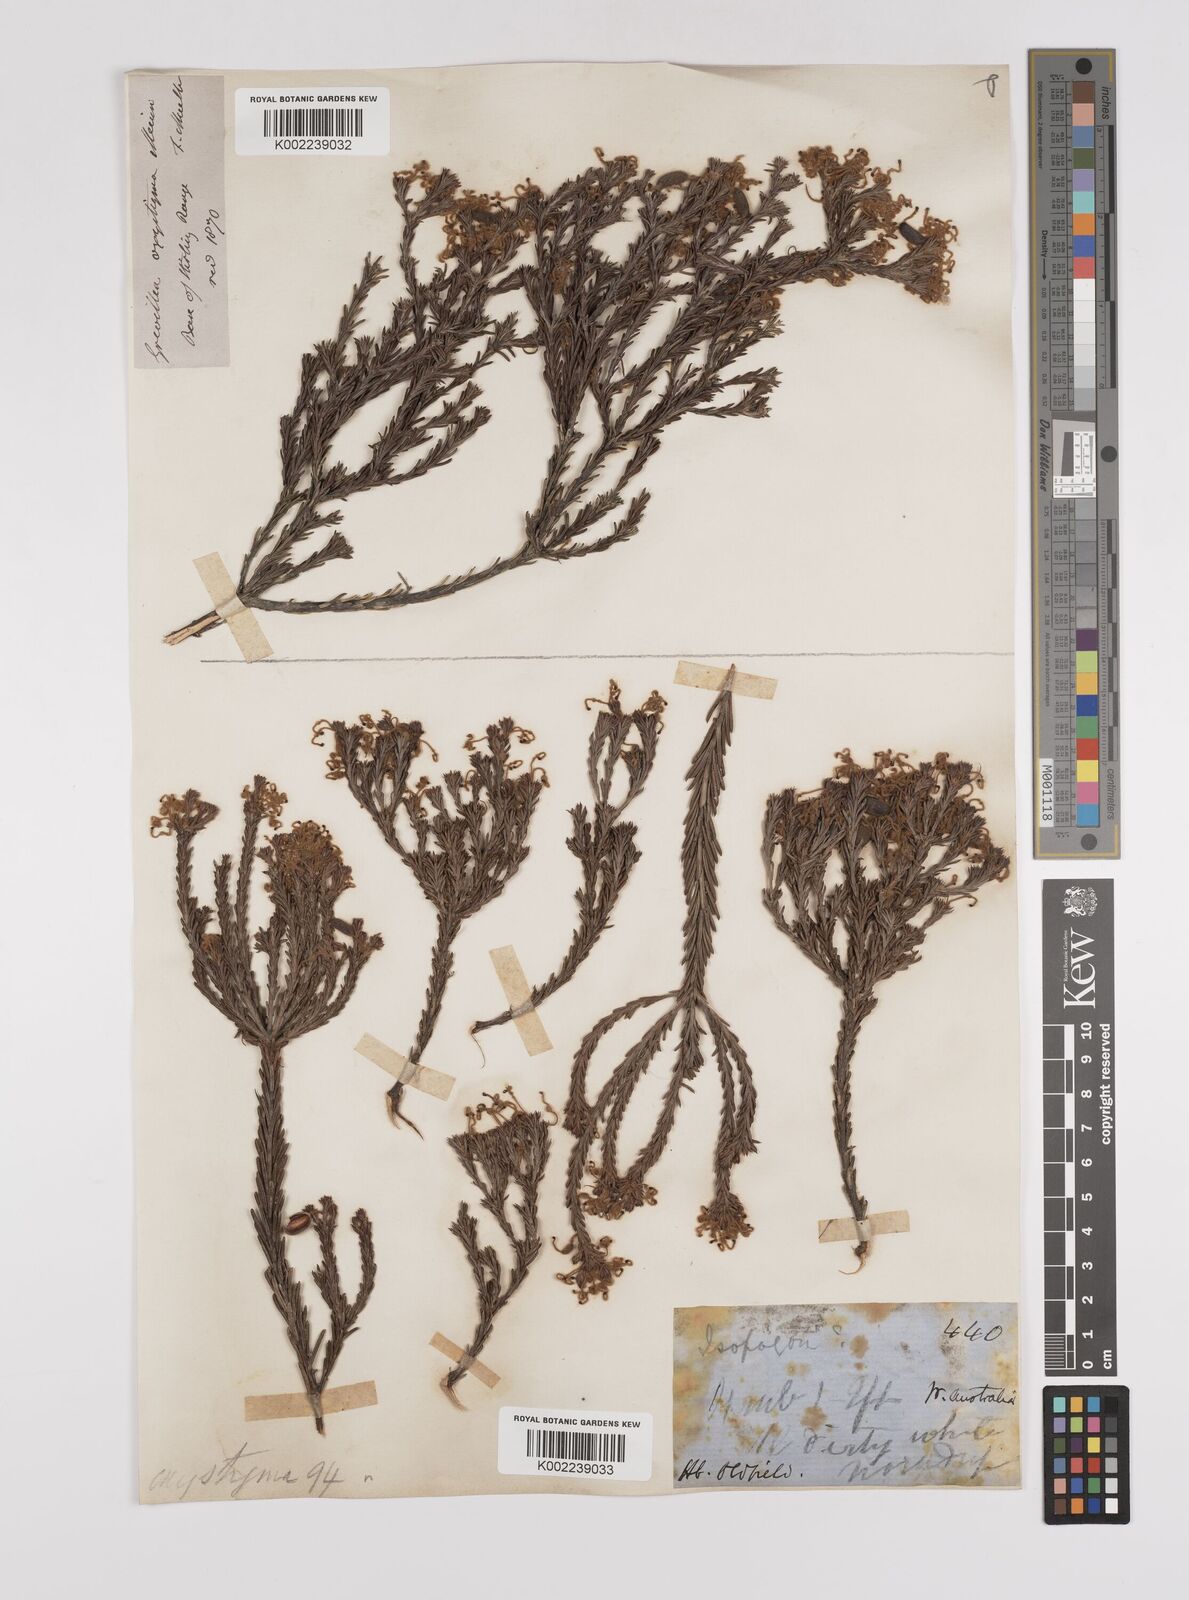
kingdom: Plantae
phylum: Tracheophyta
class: Magnoliopsida
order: Proteales
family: Proteaceae
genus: Grevillea
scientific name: Grevillea pilulifera
